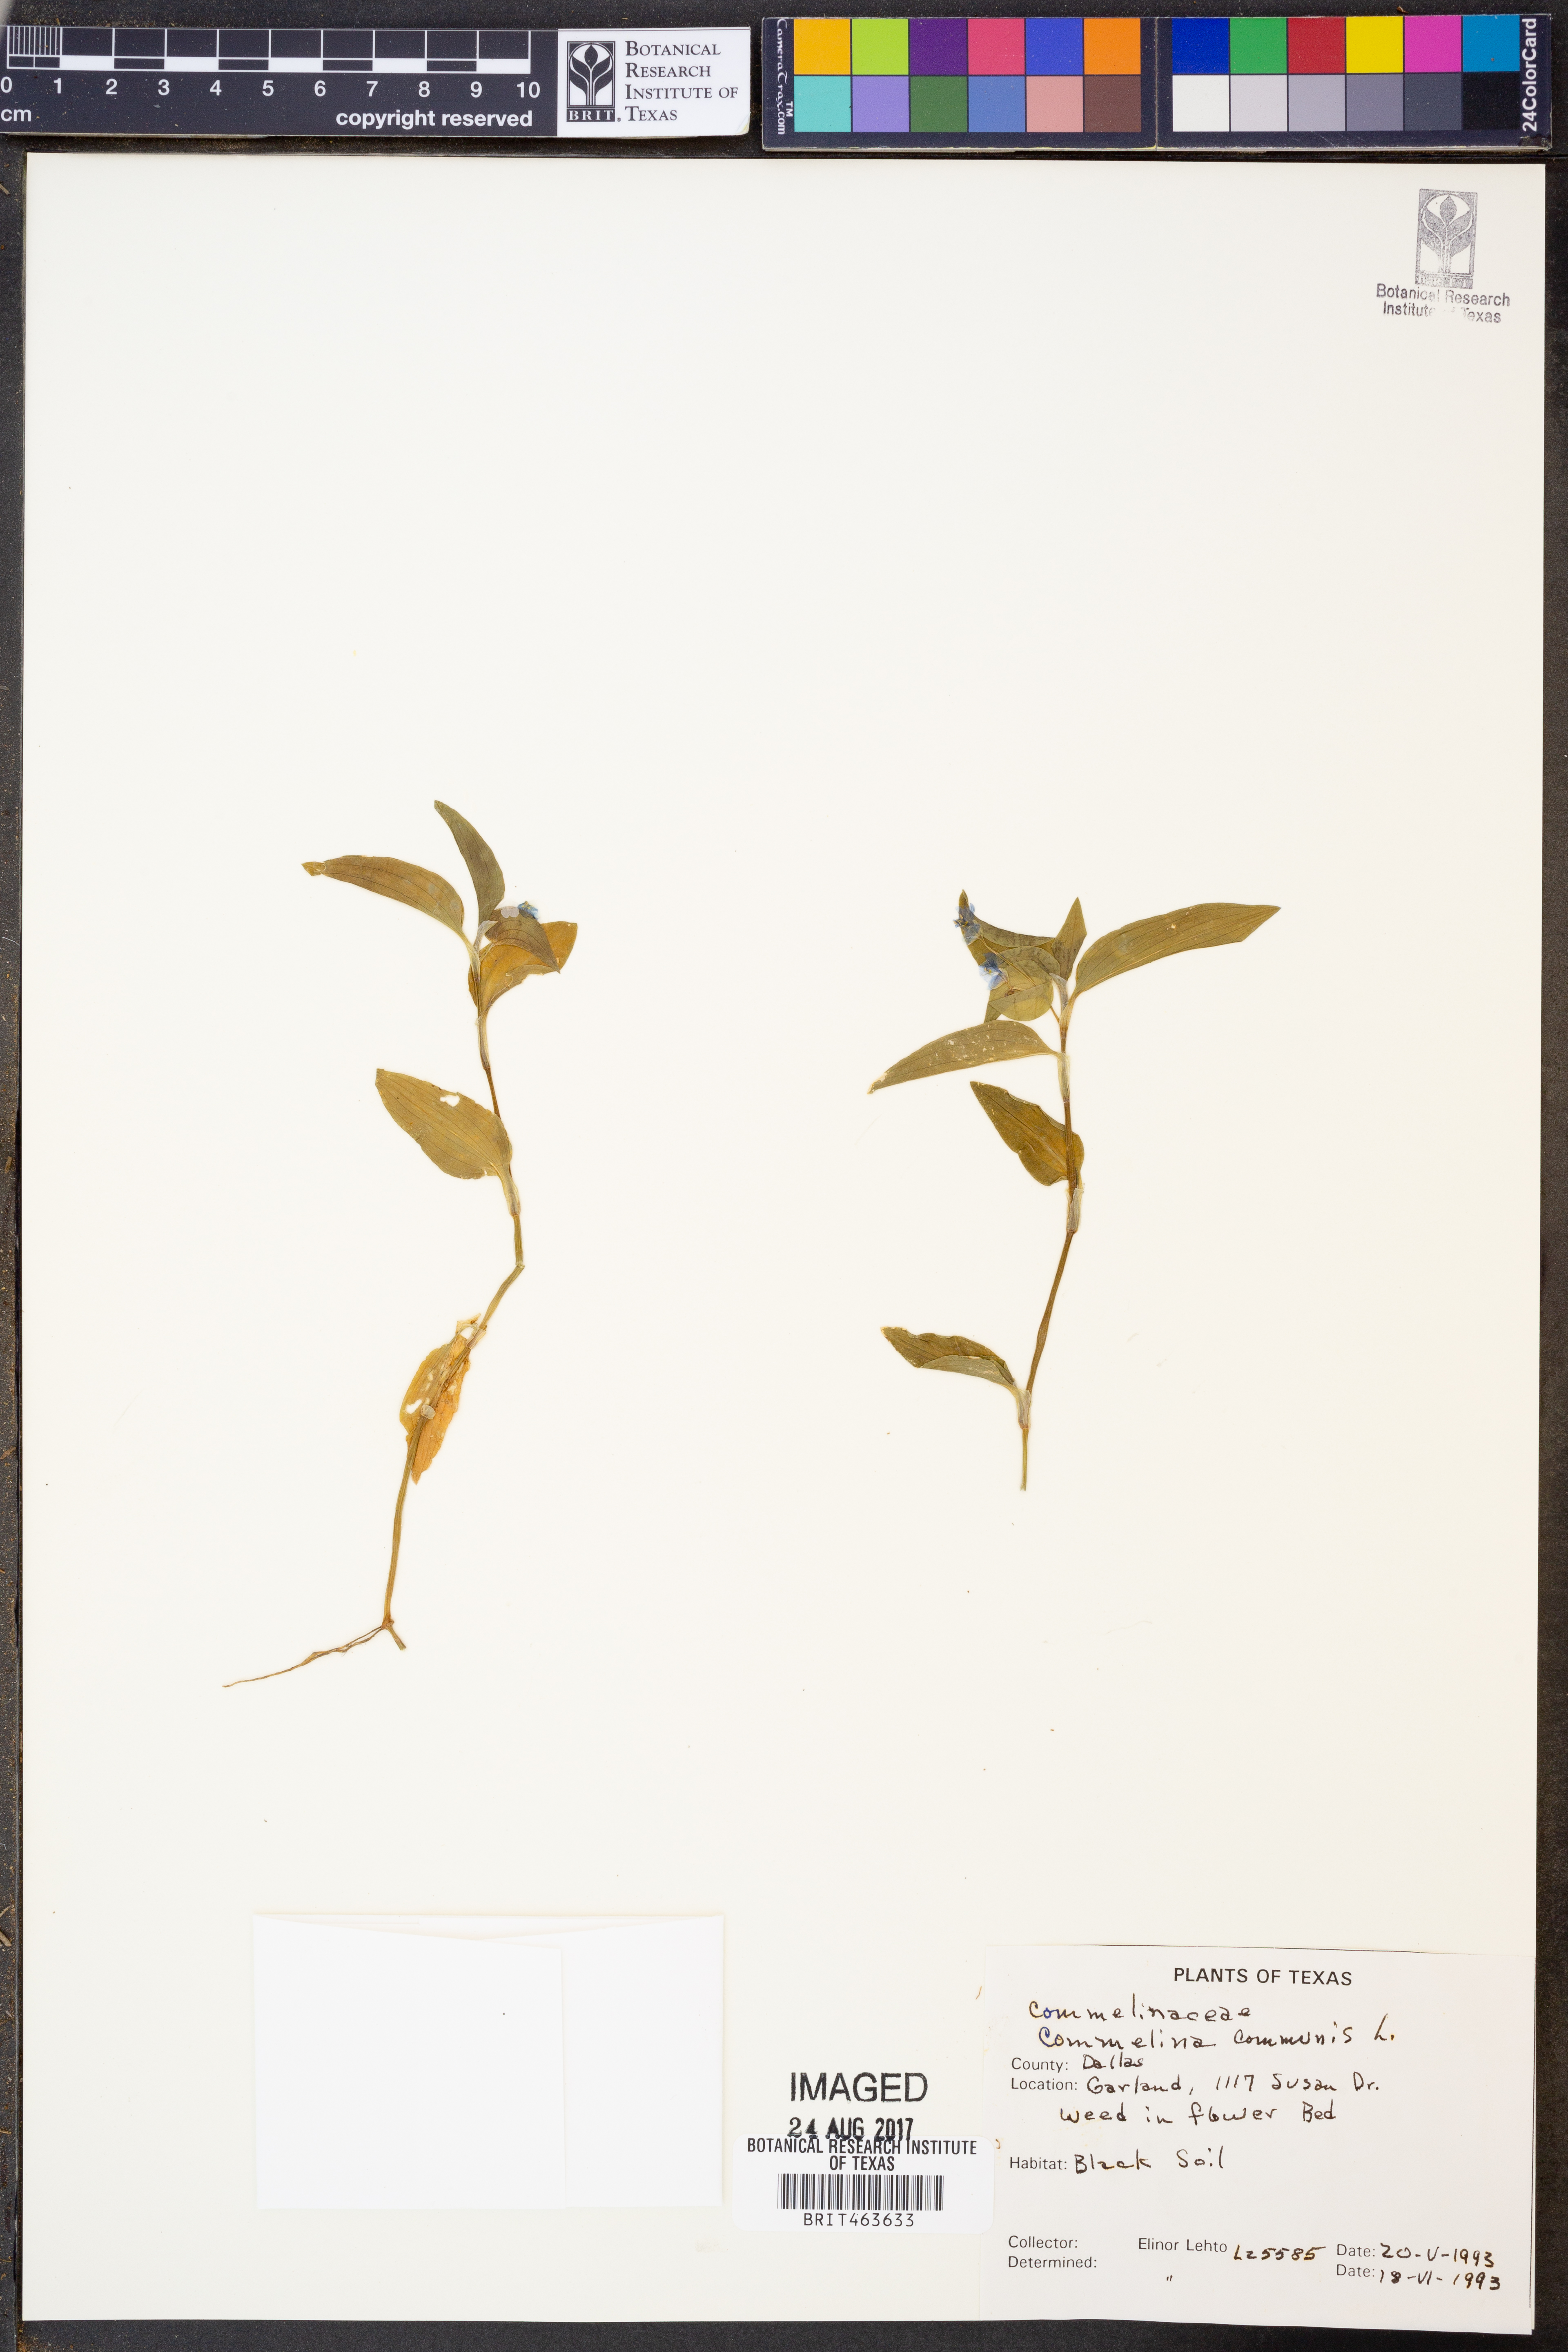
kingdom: Plantae
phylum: Tracheophyta
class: Liliopsida
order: Commelinales
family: Commelinaceae
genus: Commelina
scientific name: Commelina communis
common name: Asiatic dayflower
